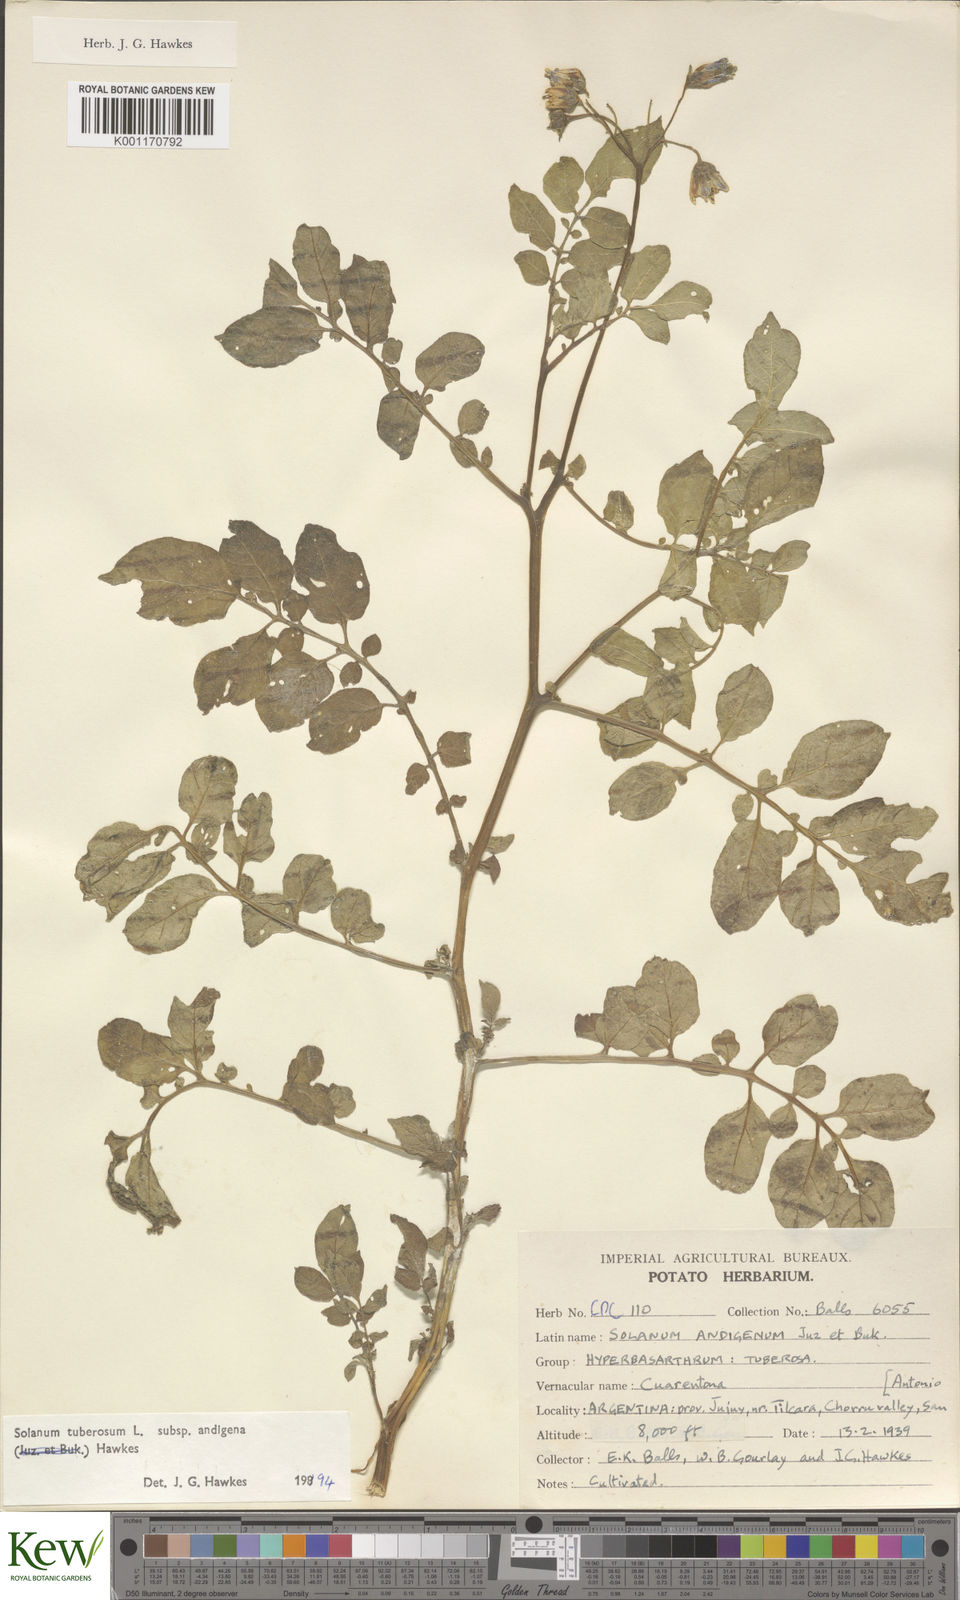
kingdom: Plantae
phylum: Tracheophyta
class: Magnoliopsida
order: Solanales
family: Solanaceae
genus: Solanum
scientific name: Solanum tuberosum
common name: Potato
